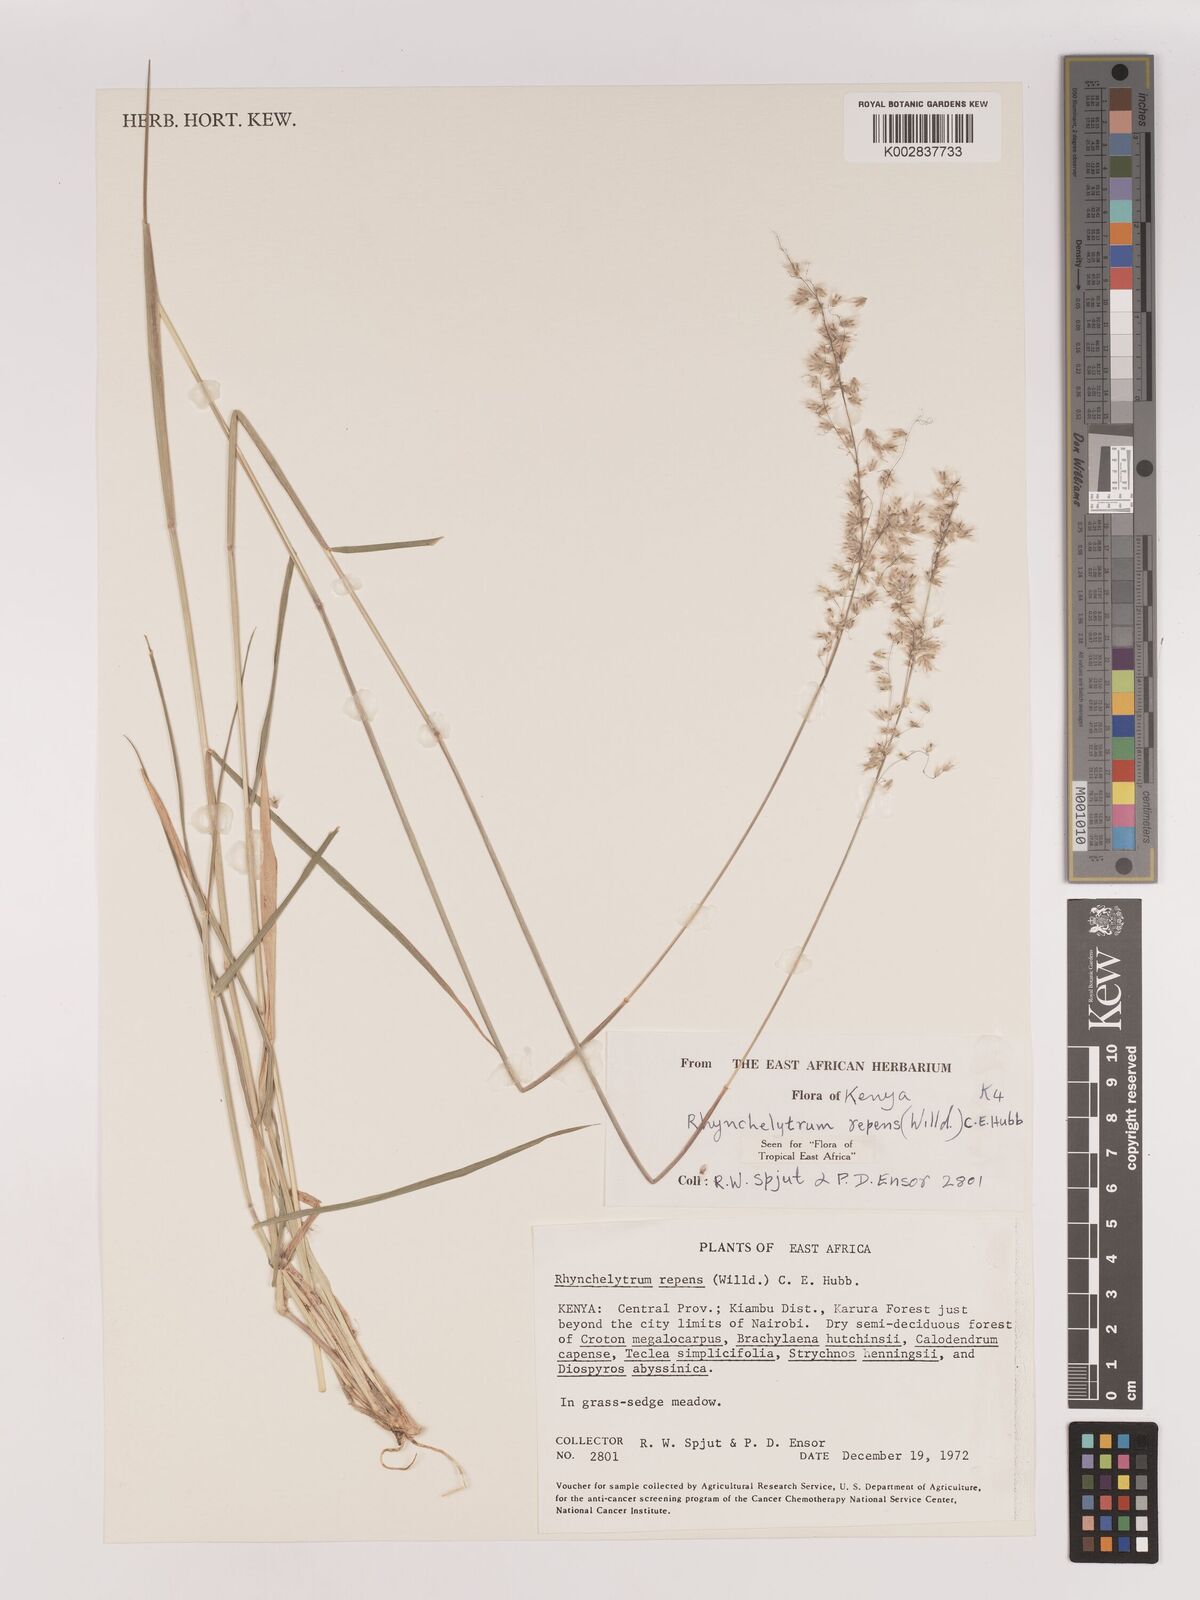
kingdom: Plantae
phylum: Tracheophyta
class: Liliopsida
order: Poales
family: Poaceae
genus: Melinis
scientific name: Melinis repens
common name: Rose natal grass
